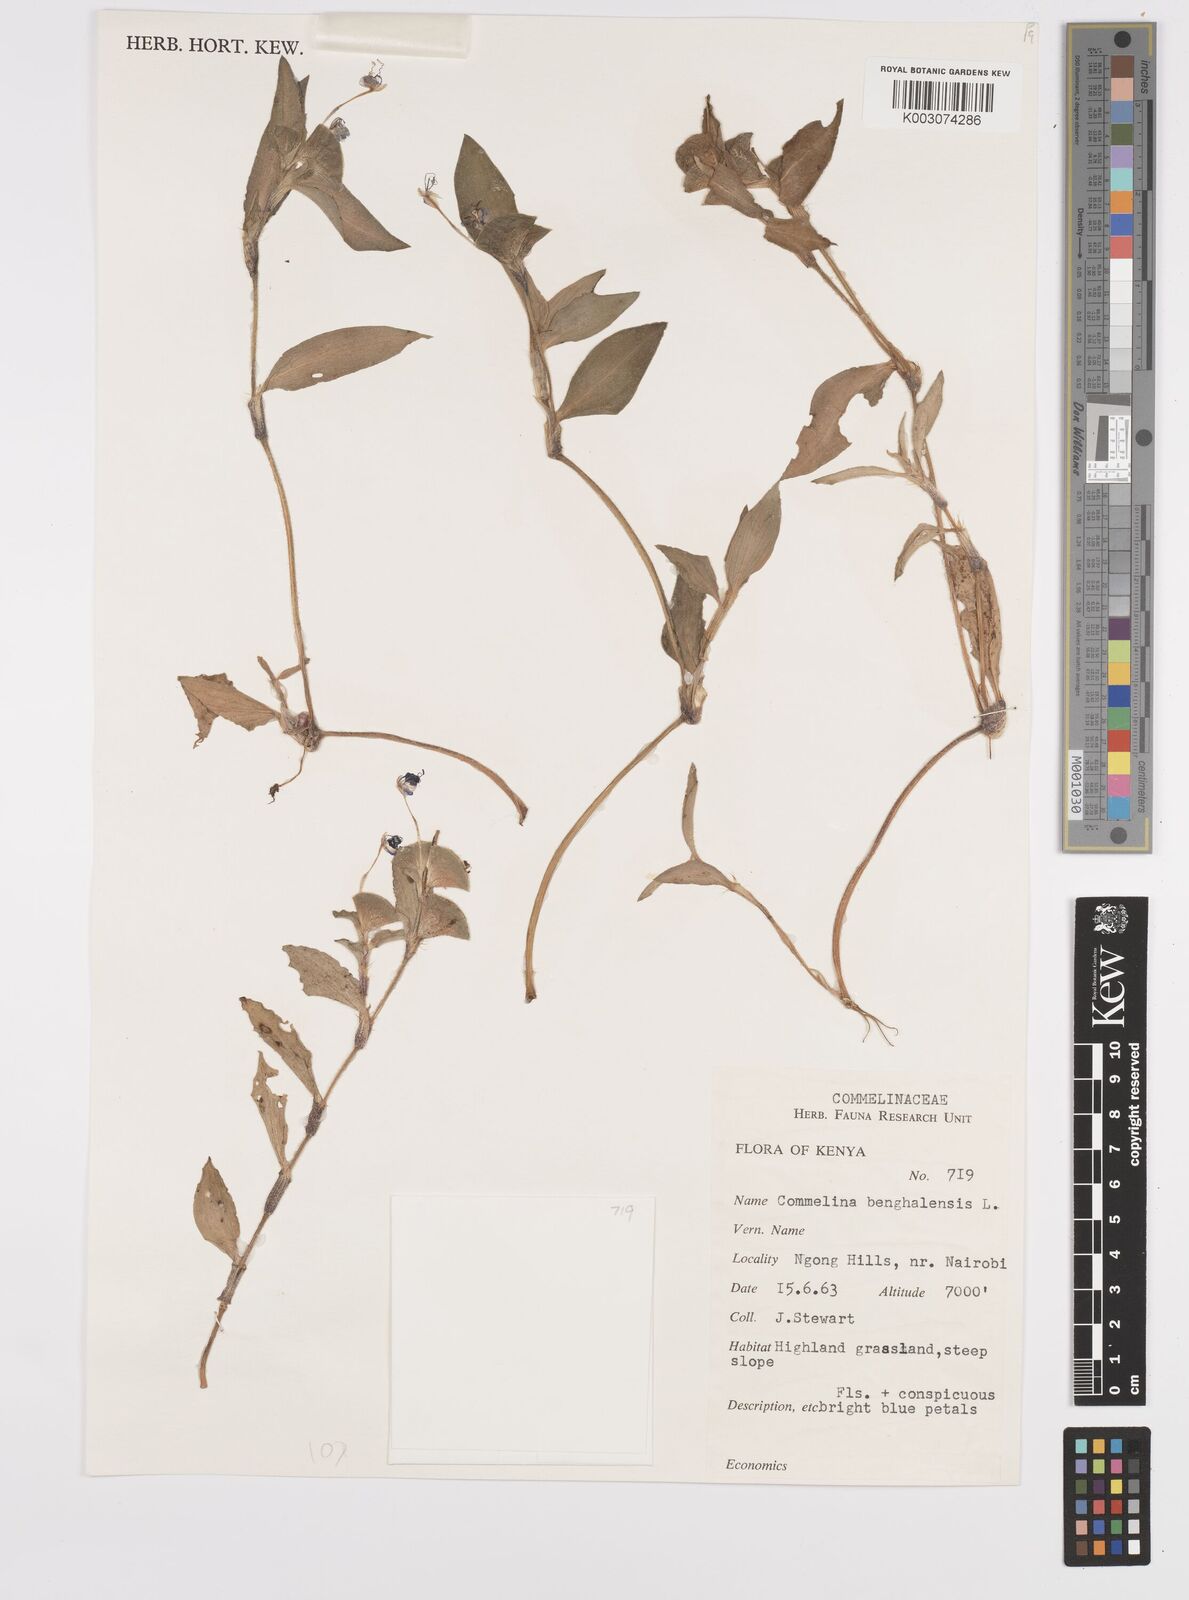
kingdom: Plantae
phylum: Tracheophyta
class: Liliopsida
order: Commelinales
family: Commelinaceae
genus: Commelina
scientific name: Commelina benghalensis
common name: Jio
